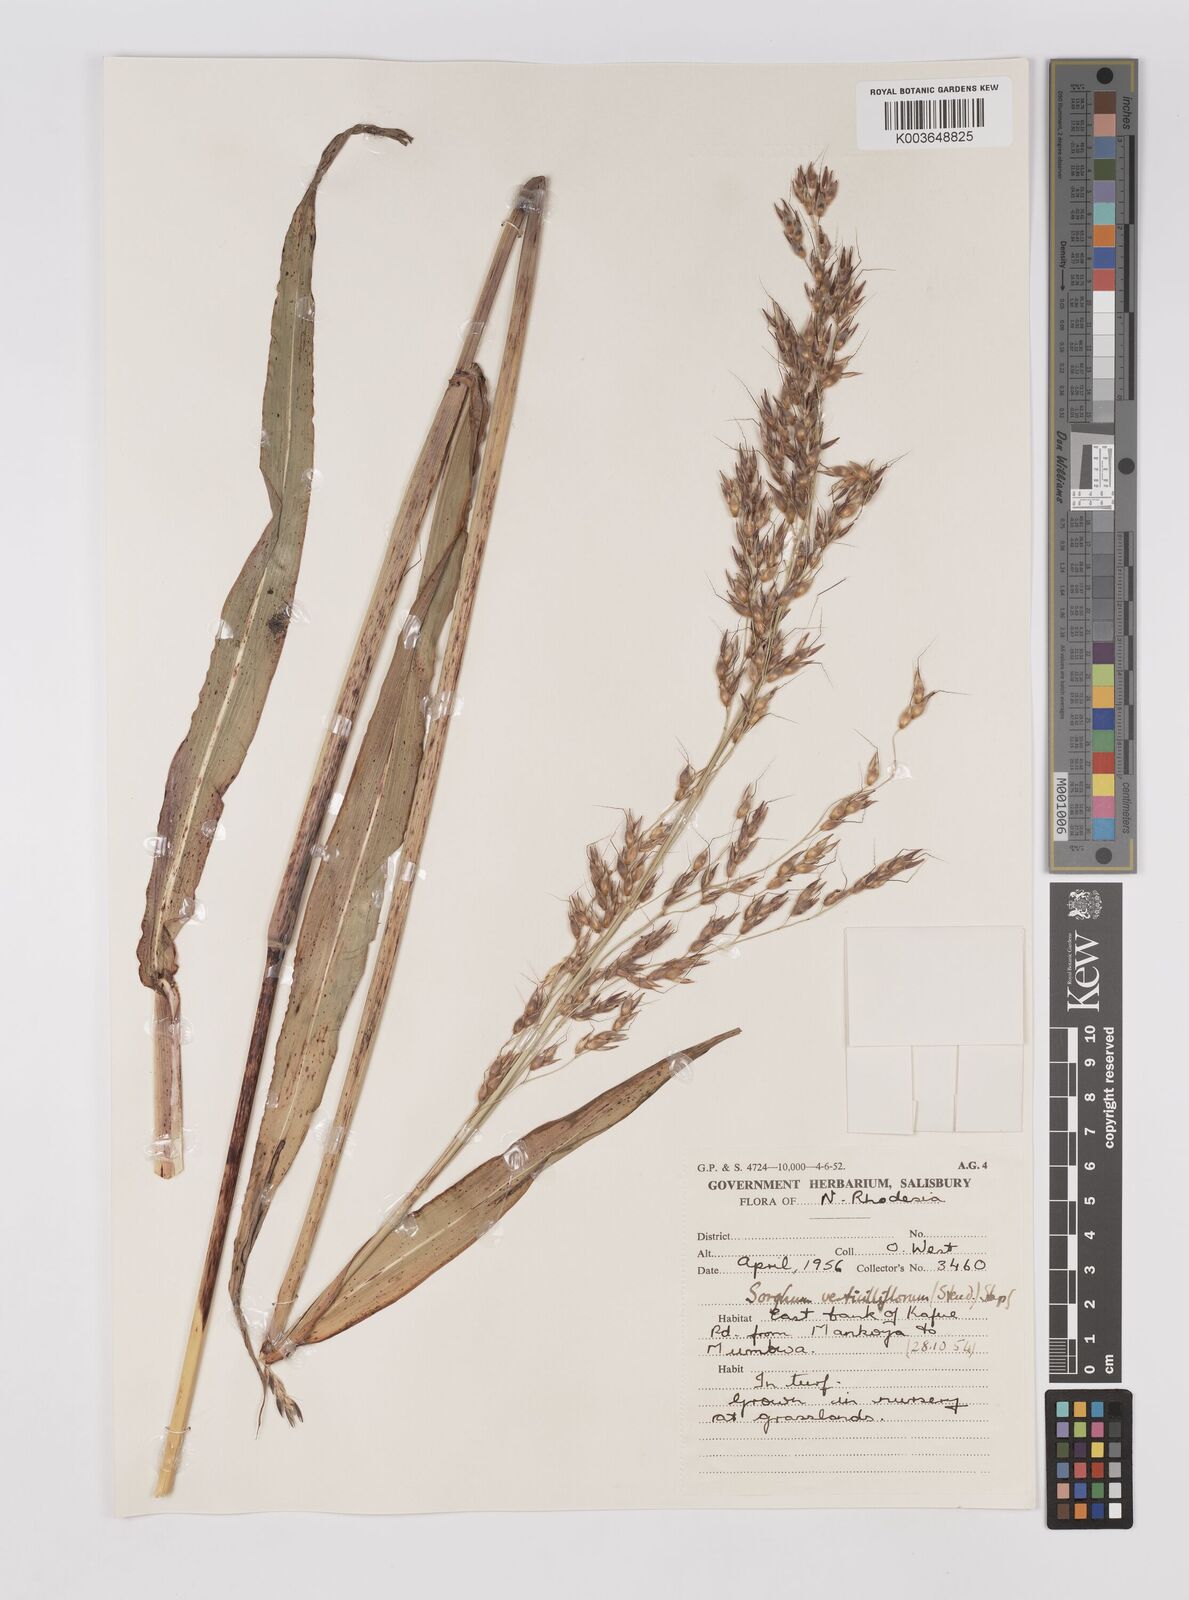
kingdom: Plantae
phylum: Tracheophyta
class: Liliopsida
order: Poales
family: Poaceae
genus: Sorghum
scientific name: Sorghum arundinaceum
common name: Sorghum
